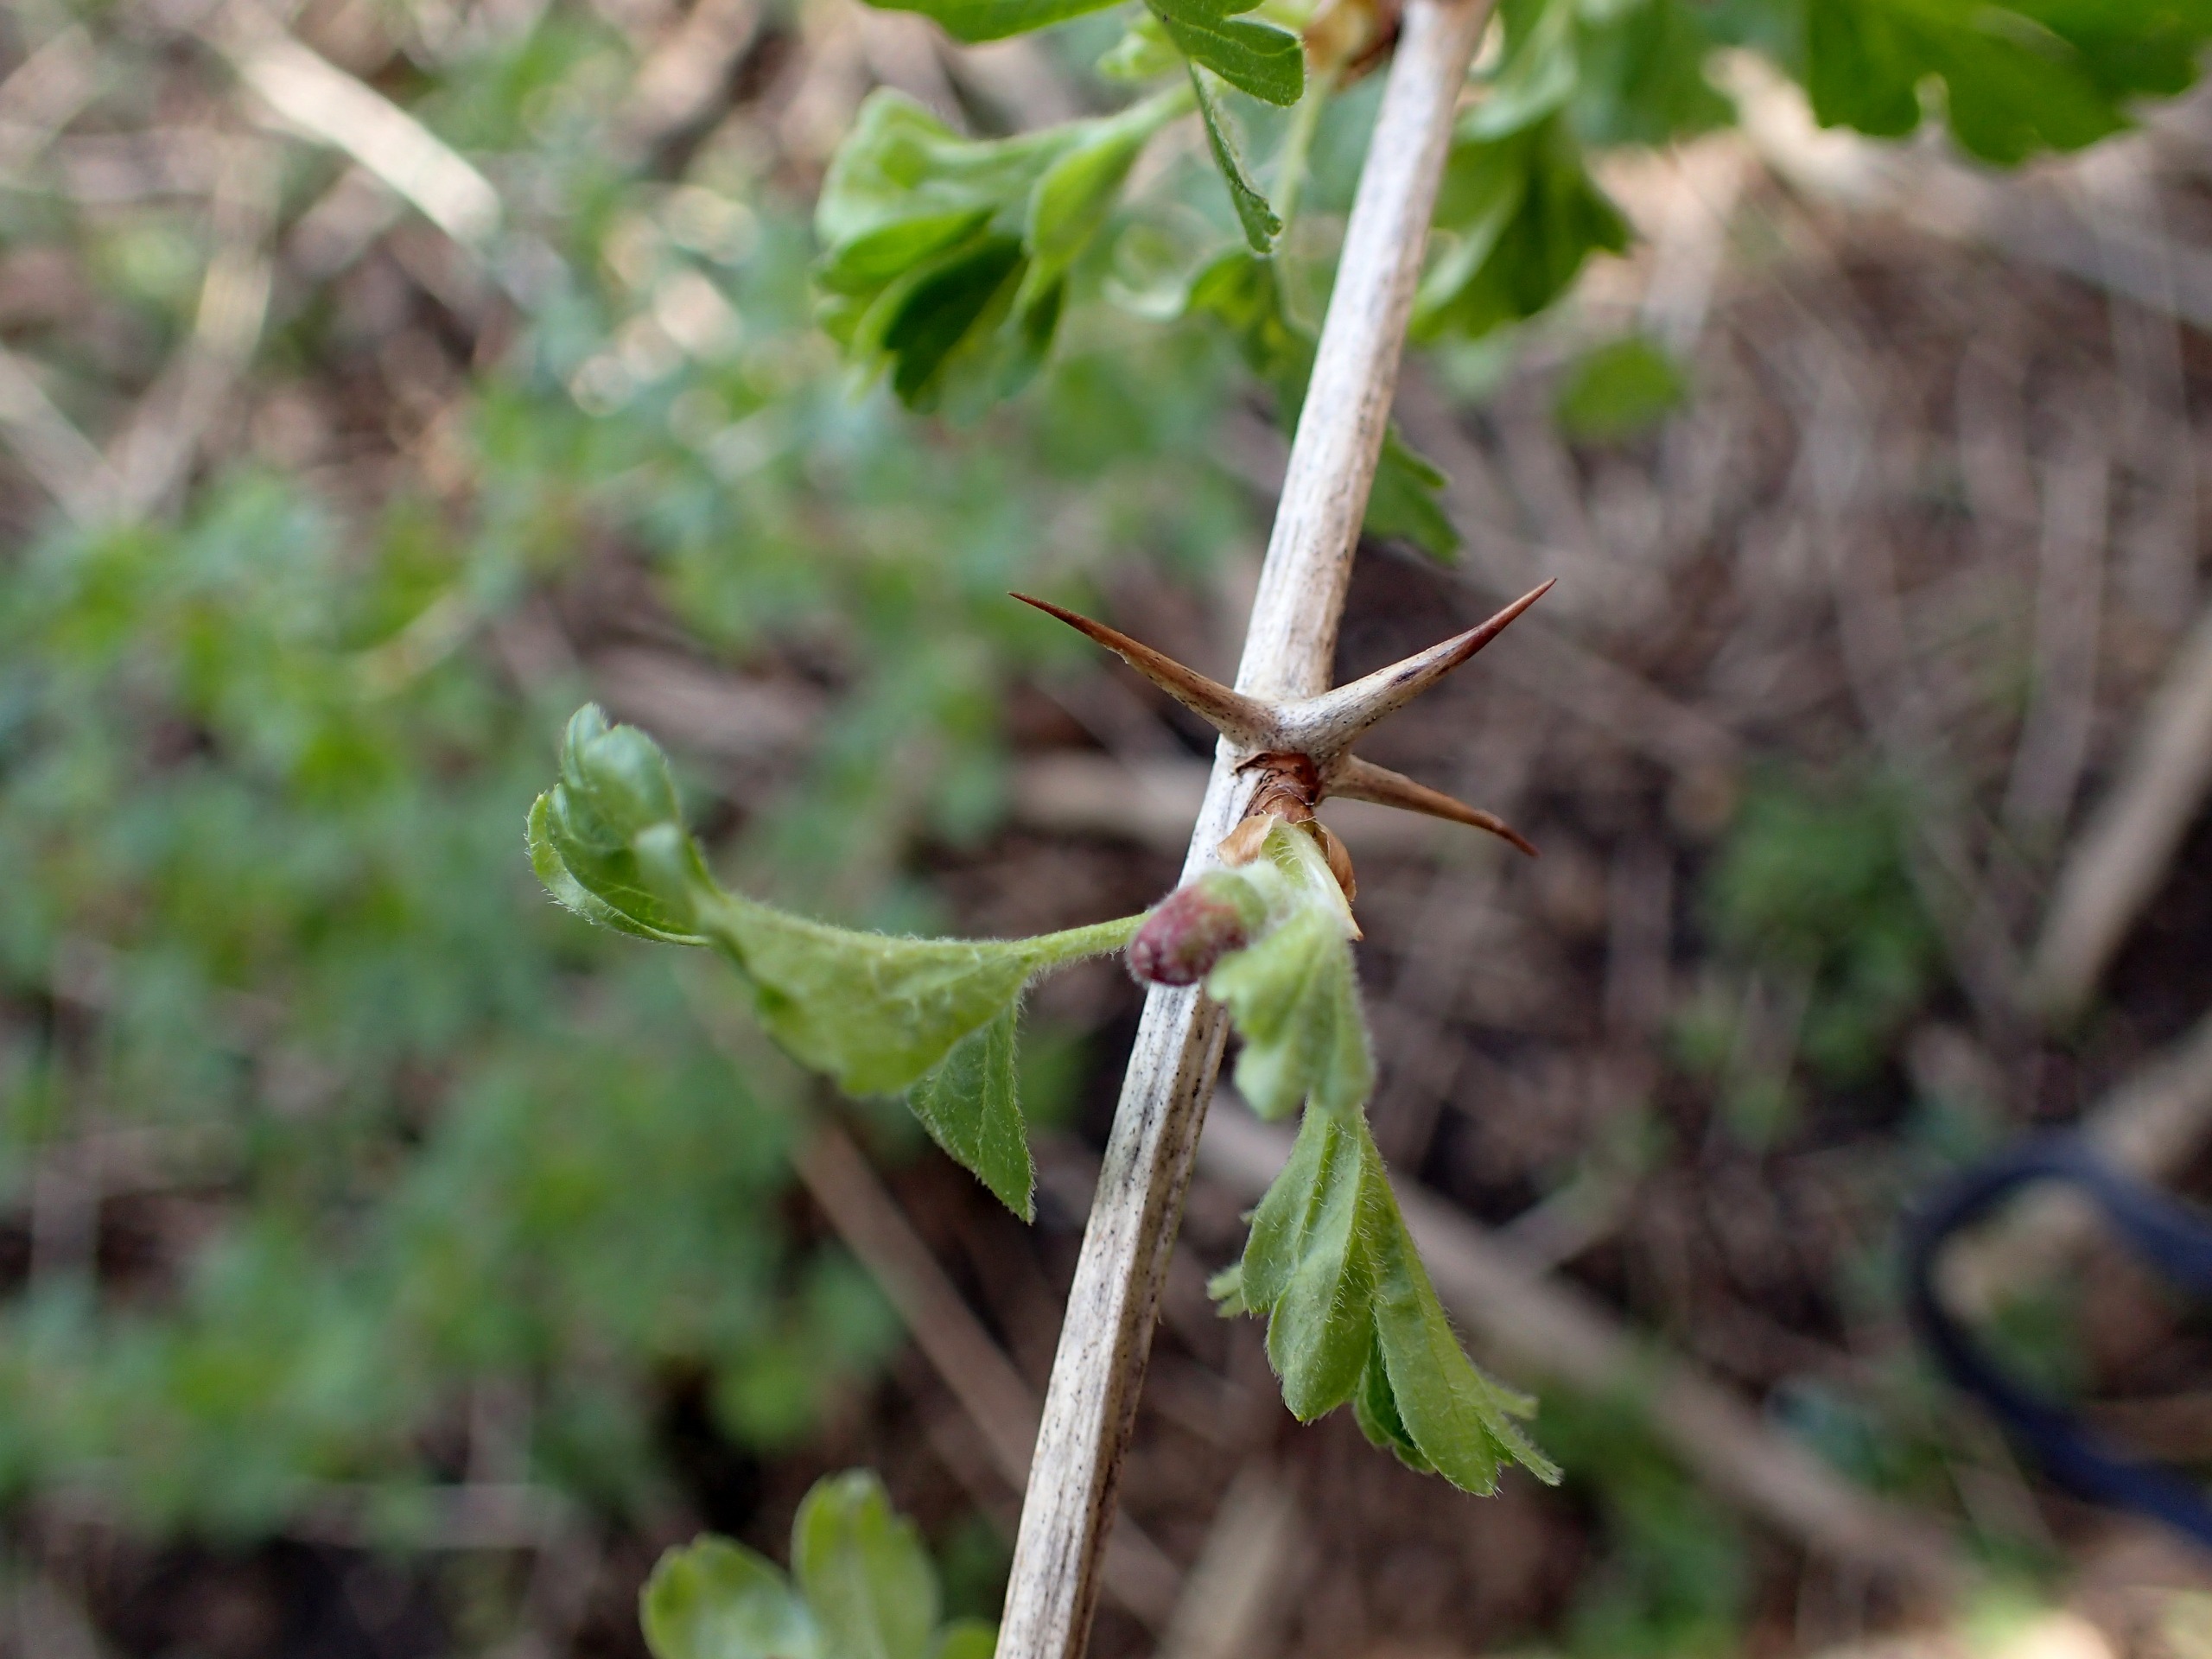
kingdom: Plantae
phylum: Tracheophyta
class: Magnoliopsida
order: Saxifragales
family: Grossulariaceae
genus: Ribes
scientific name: Ribes uva-crispa
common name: Stikkelsbær
